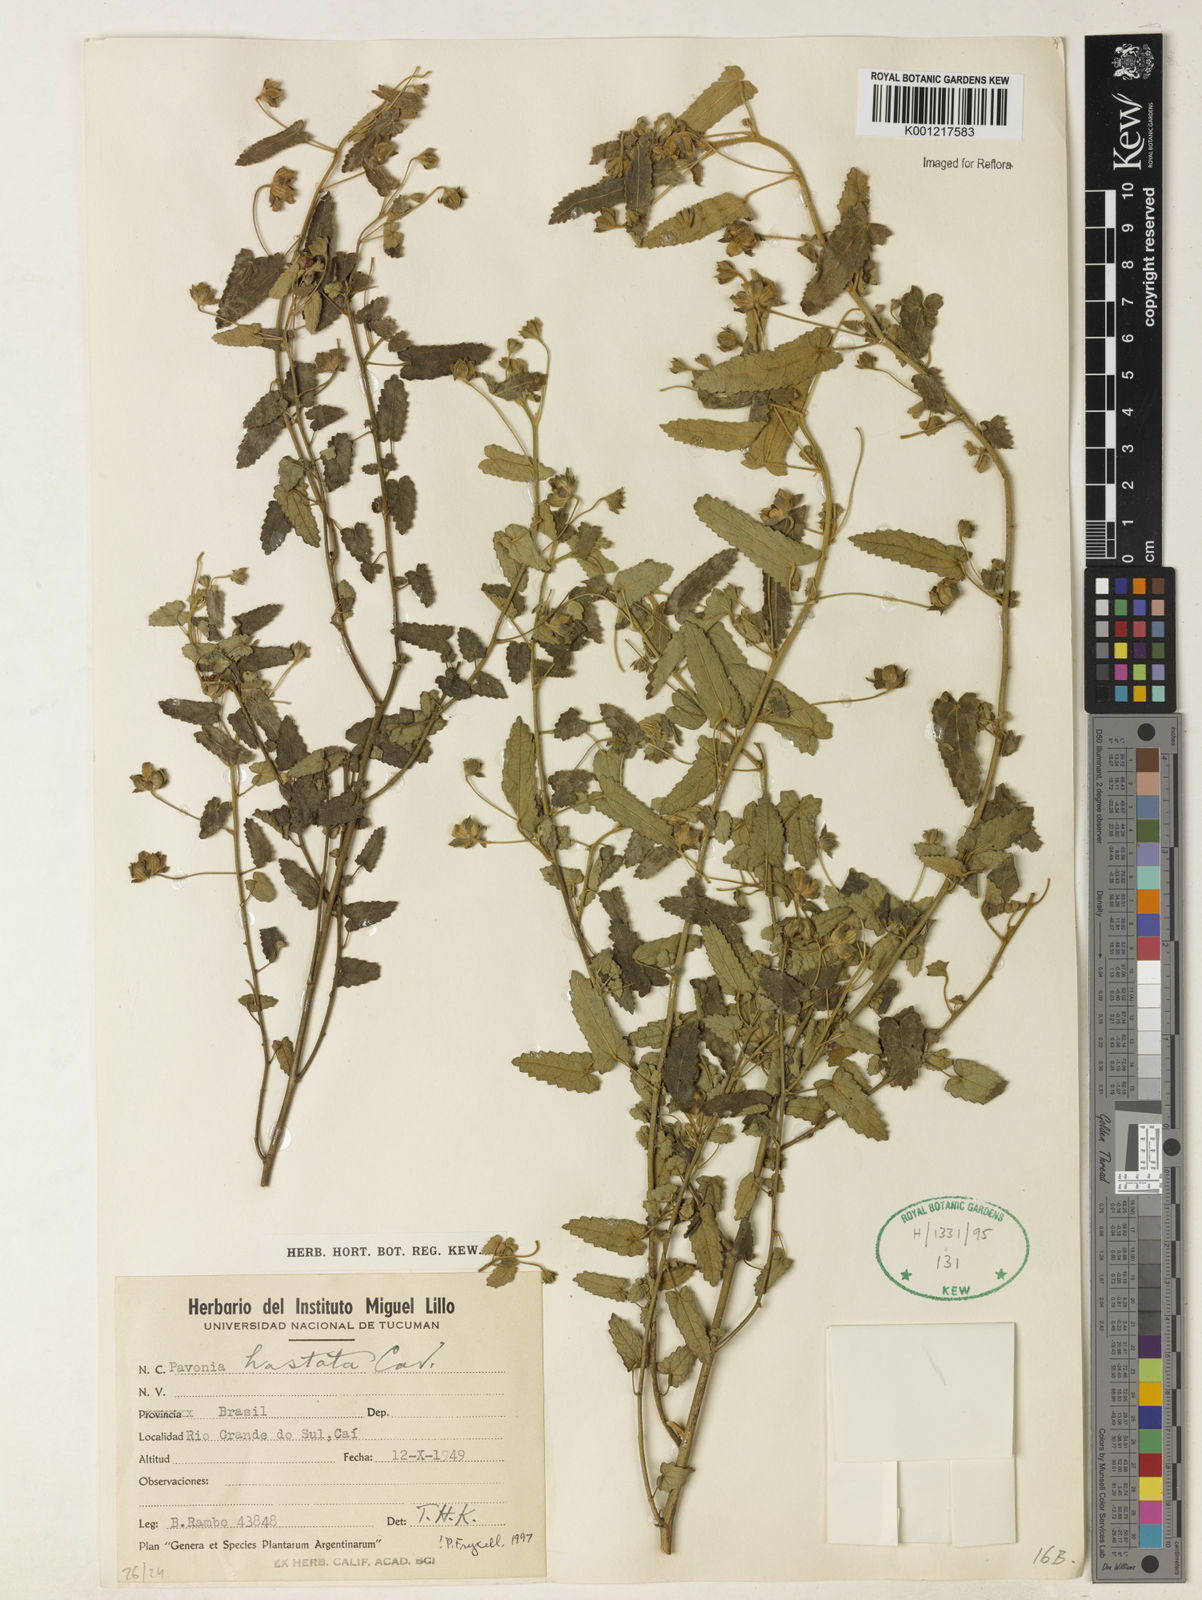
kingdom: Plantae
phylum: Tracheophyta
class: Magnoliopsida
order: Malvales
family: Malvaceae
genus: Pavonia
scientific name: Pavonia hastata
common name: Spearleaf swampmallow
